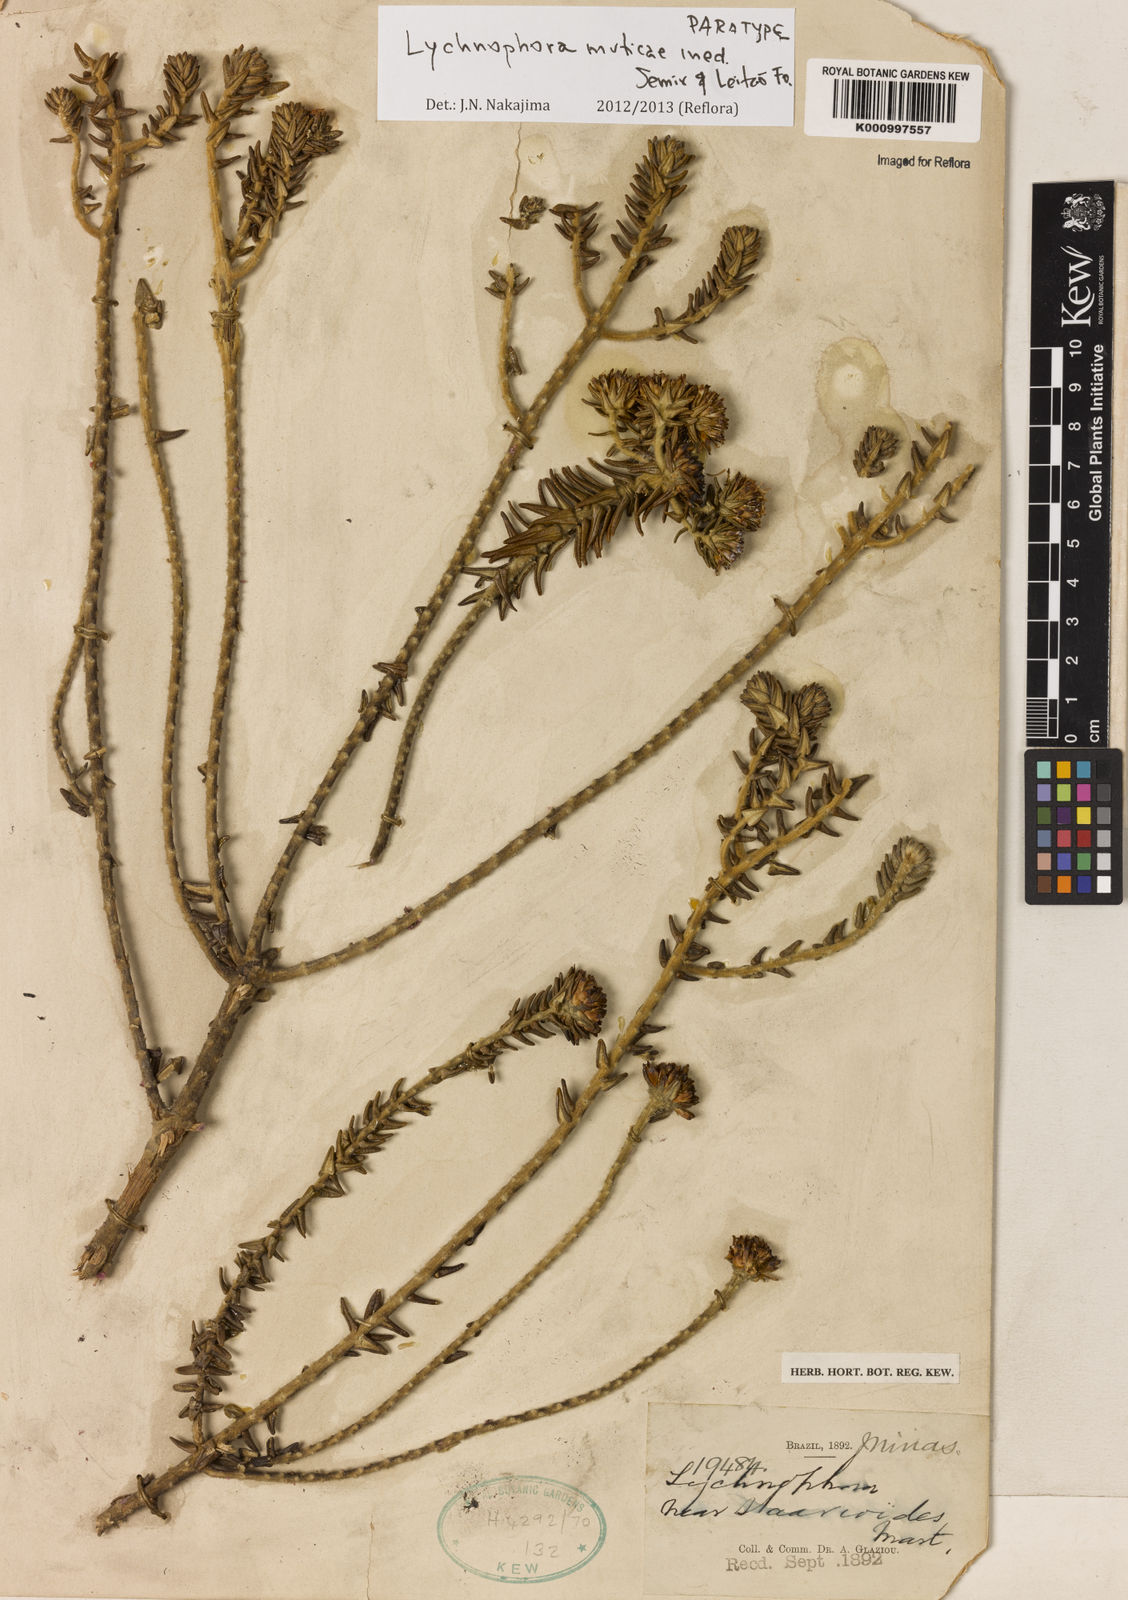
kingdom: Plantae
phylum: Tracheophyta
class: Magnoliopsida
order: Asterales
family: Asteraceae
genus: Lychnophora
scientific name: Lychnophora
